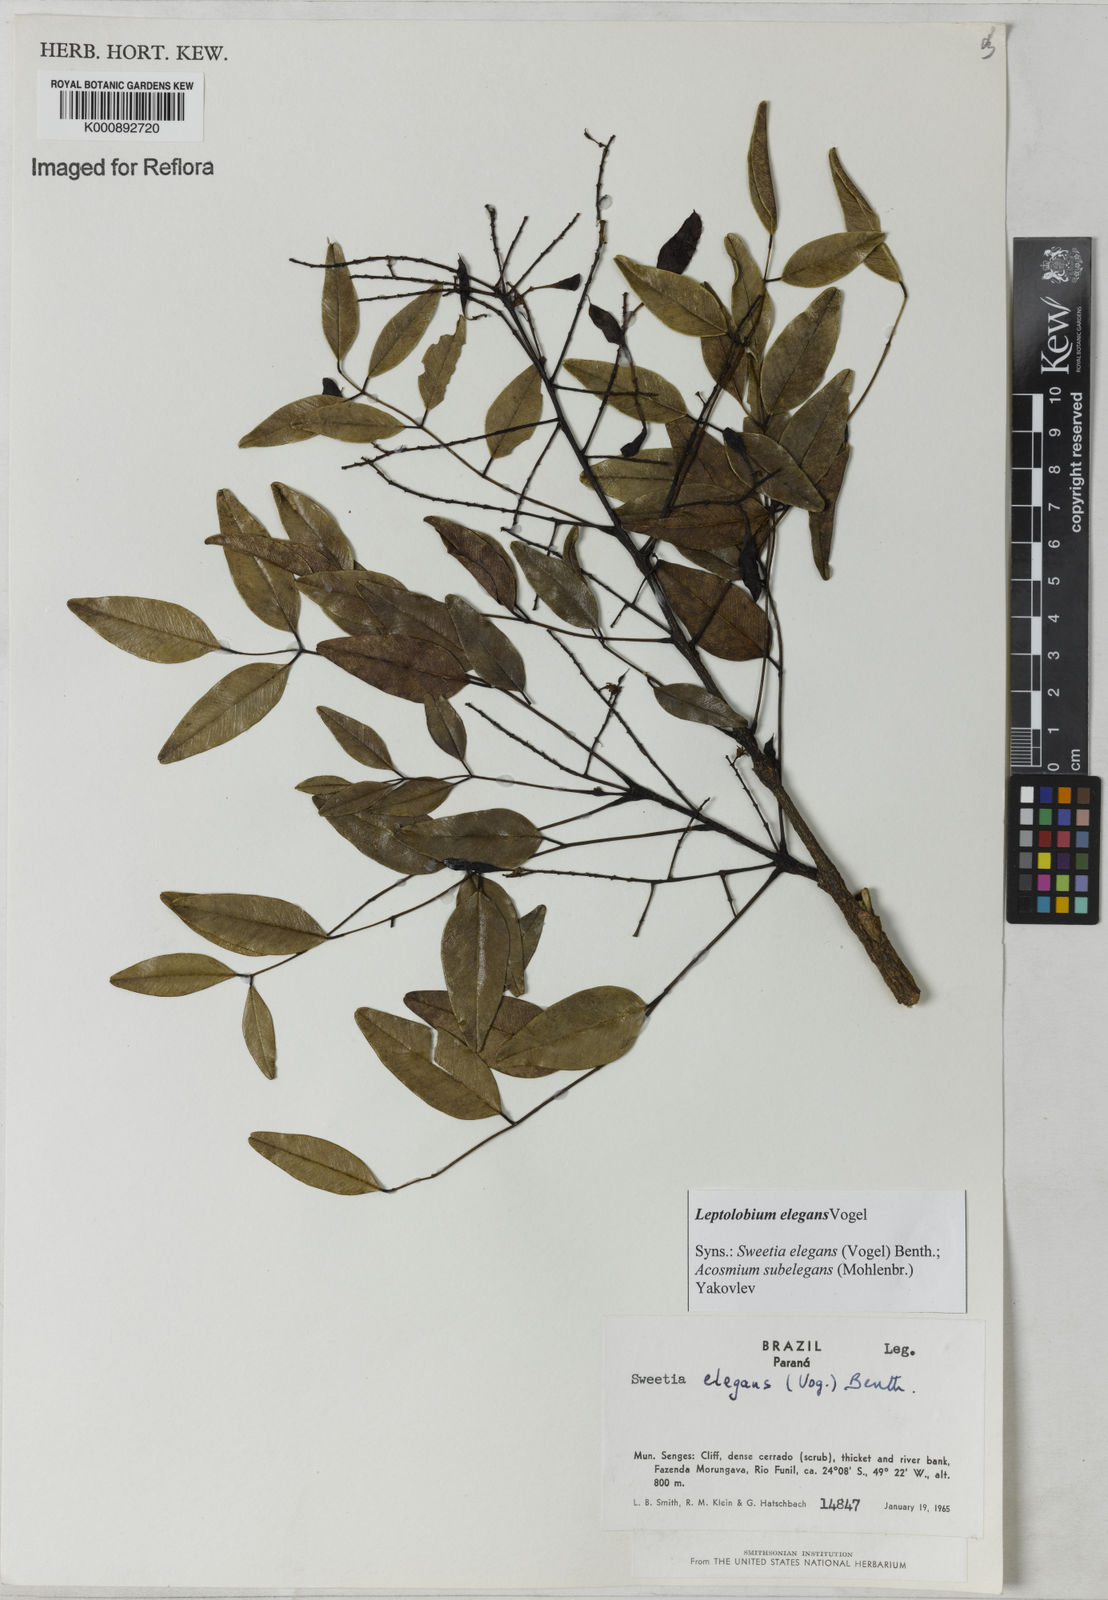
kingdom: Plantae
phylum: Tracheophyta
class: Magnoliopsida
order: Fabales
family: Fabaceae
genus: Leptolobium
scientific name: Leptolobium elegans
